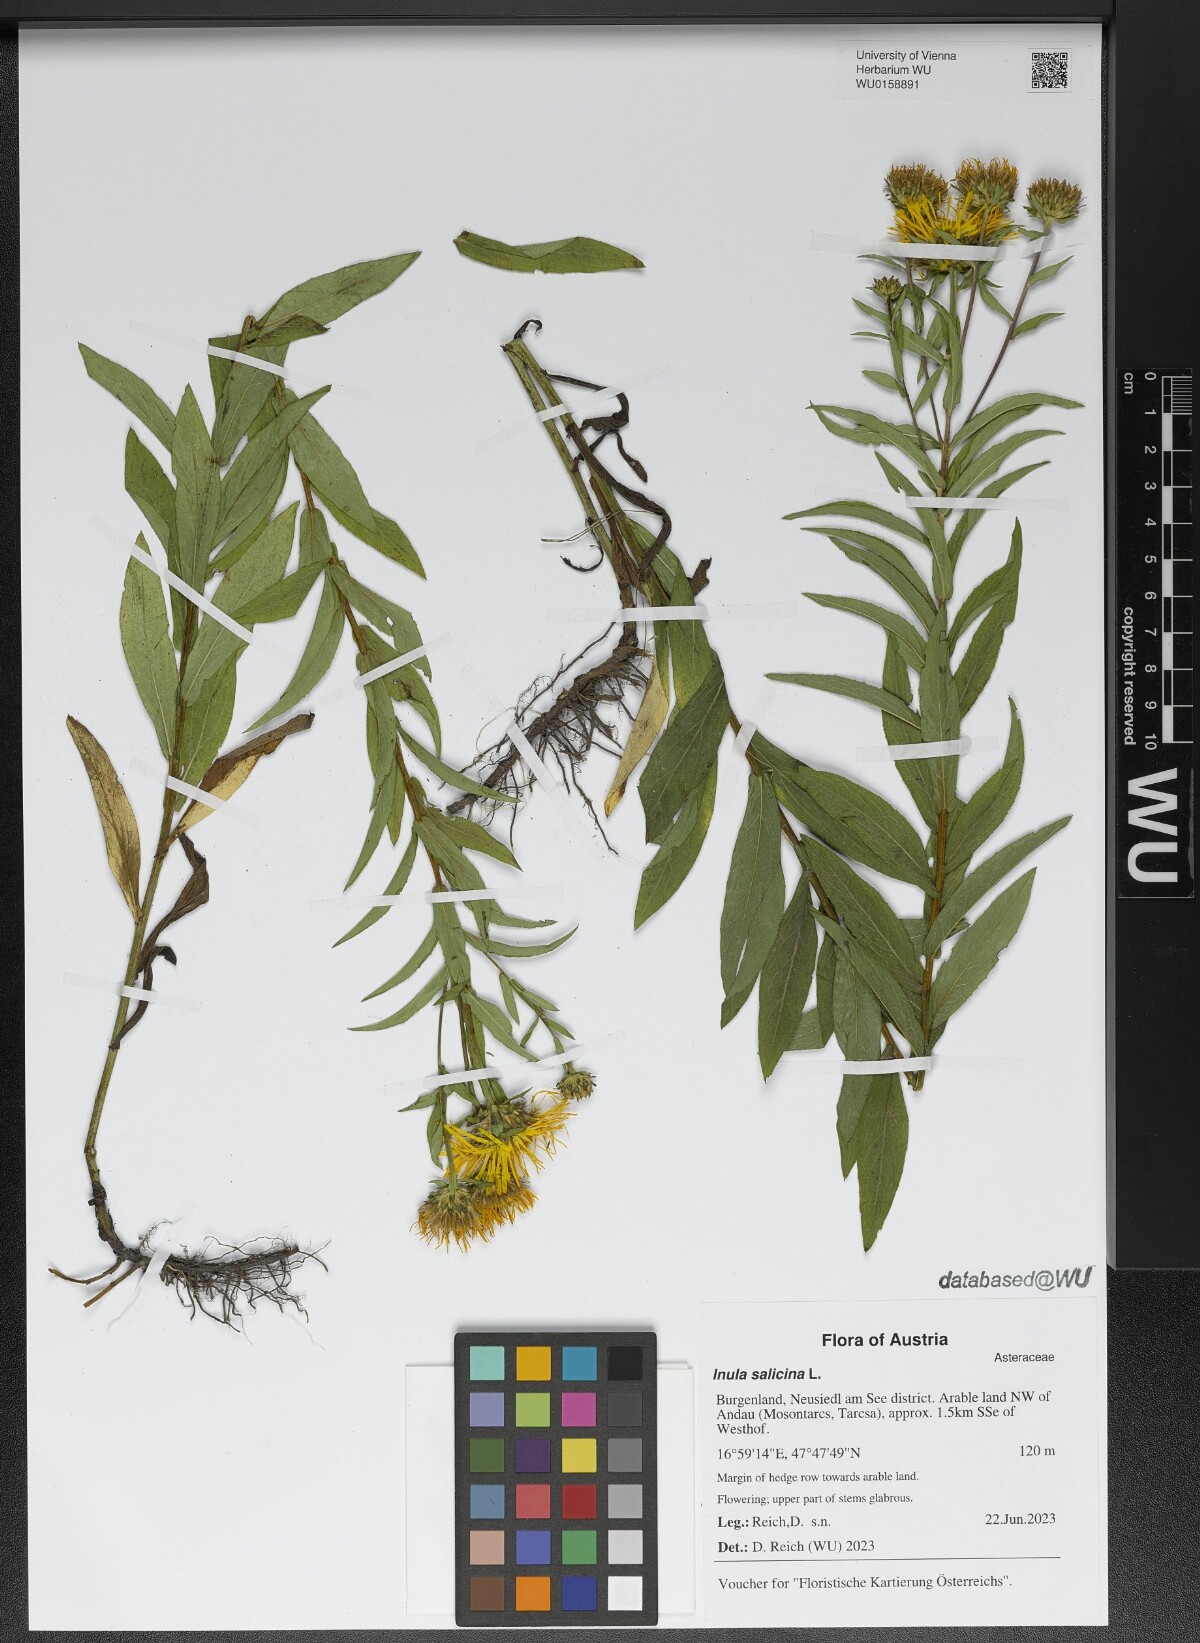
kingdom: Plantae
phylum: Tracheophyta
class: Magnoliopsida
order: Asterales
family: Asteraceae
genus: Pentanema
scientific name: Pentanema salicinum
